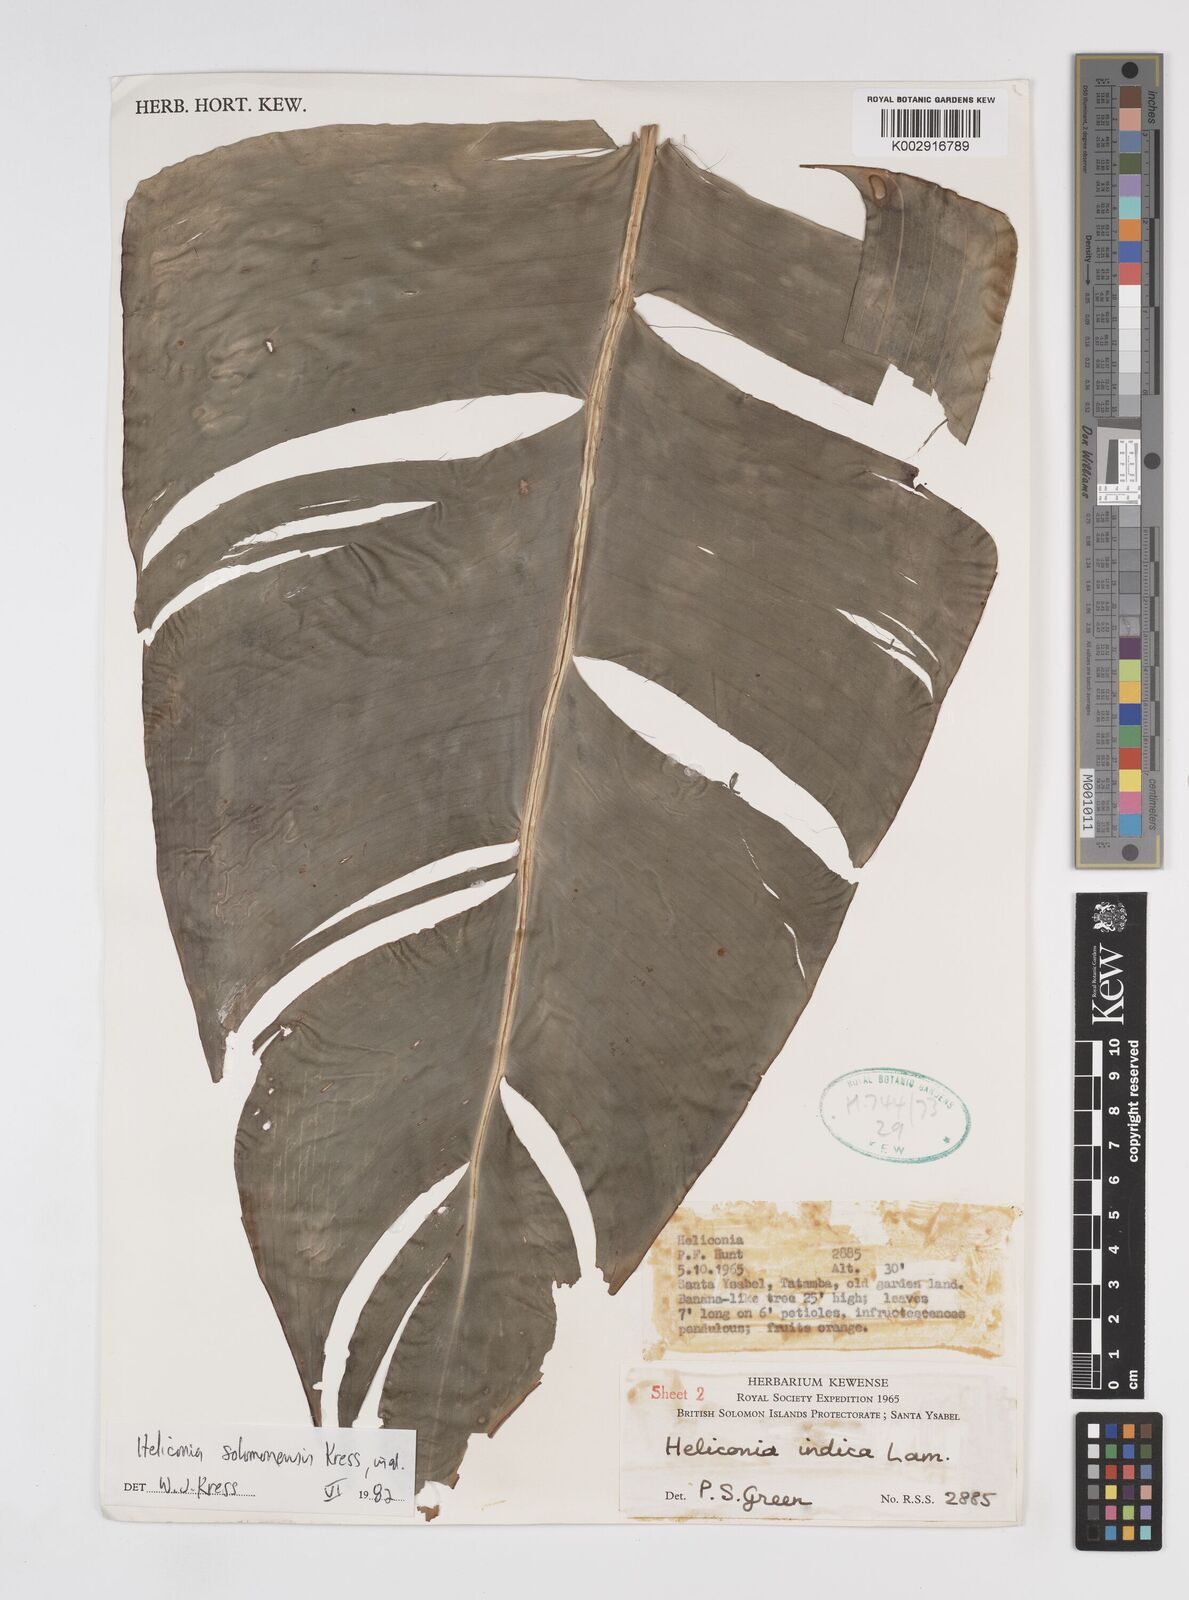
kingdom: Plantae
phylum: Tracheophyta
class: Liliopsida
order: Zingiberales
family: Heliconiaceae
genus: Heliconia
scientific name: Heliconia solomonensis
